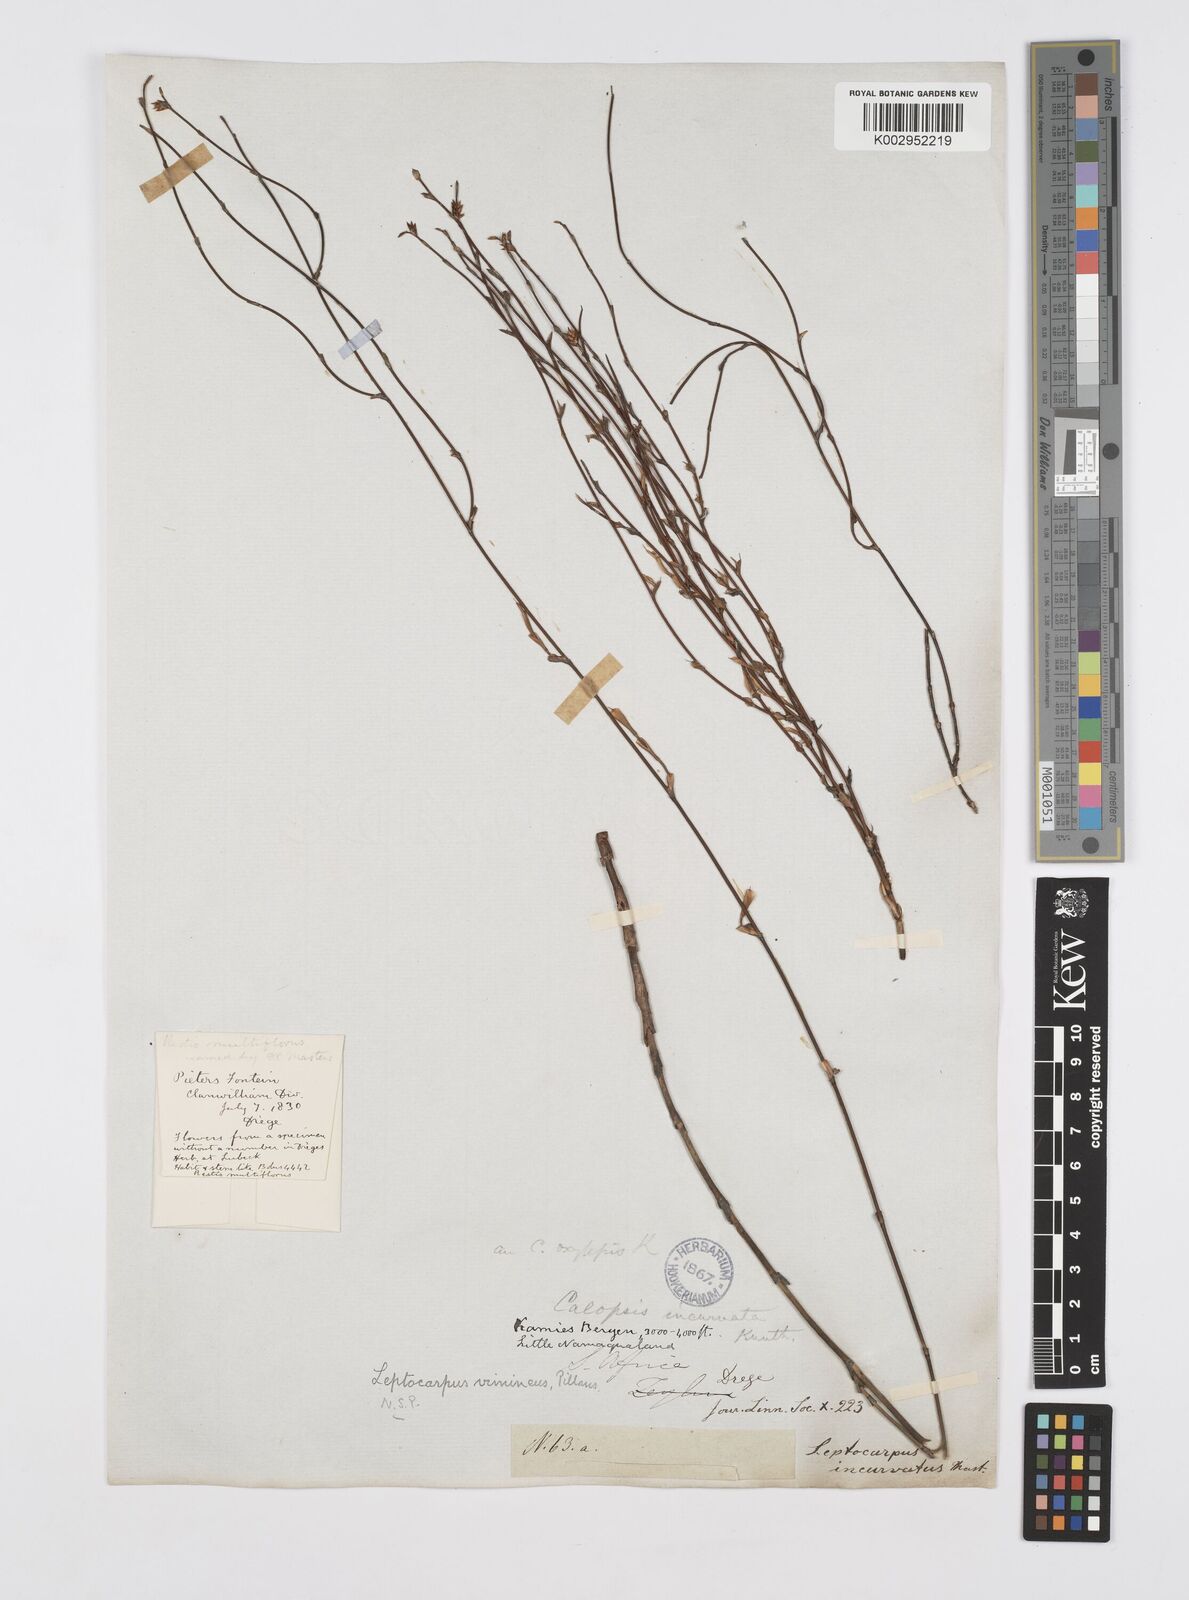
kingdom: Plantae
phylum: Tracheophyta
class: Liliopsida
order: Poales
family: Restionaceae
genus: Restio
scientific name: Restio vimineus
